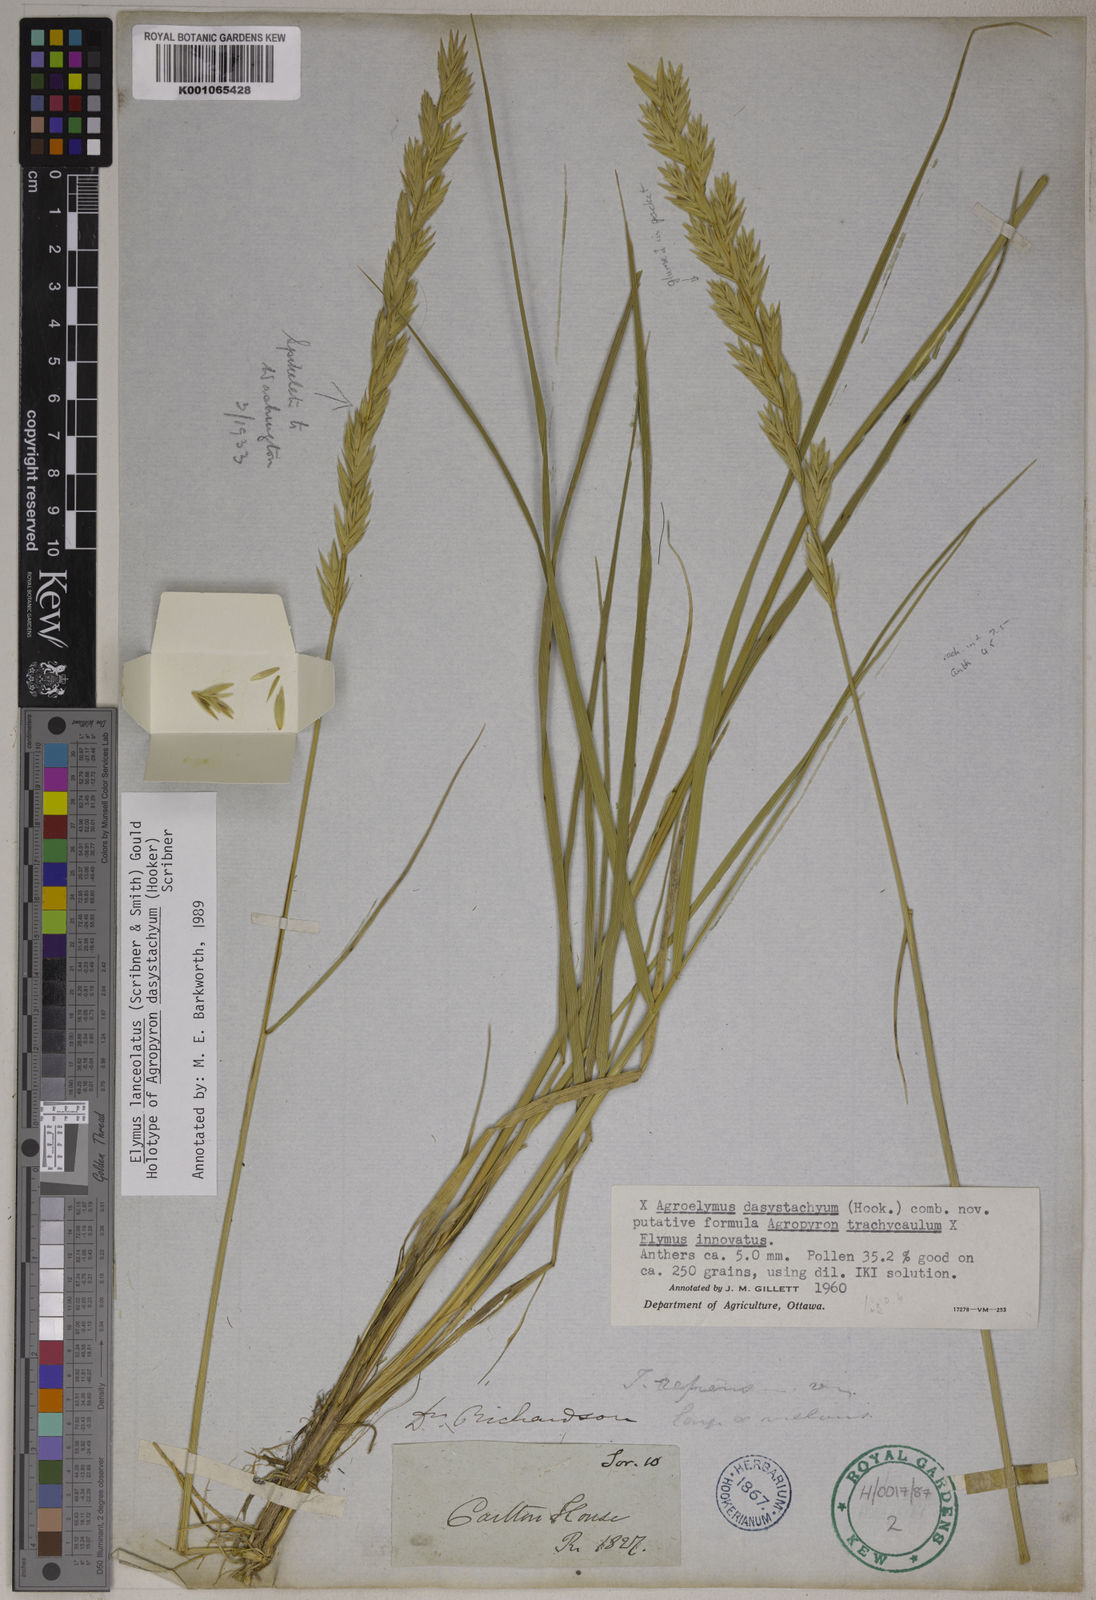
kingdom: Plantae
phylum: Tracheophyta
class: Liliopsida
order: Poales
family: Poaceae
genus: Elymus
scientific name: Elymus lanceolatus
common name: Thick-spike wheatgrass
